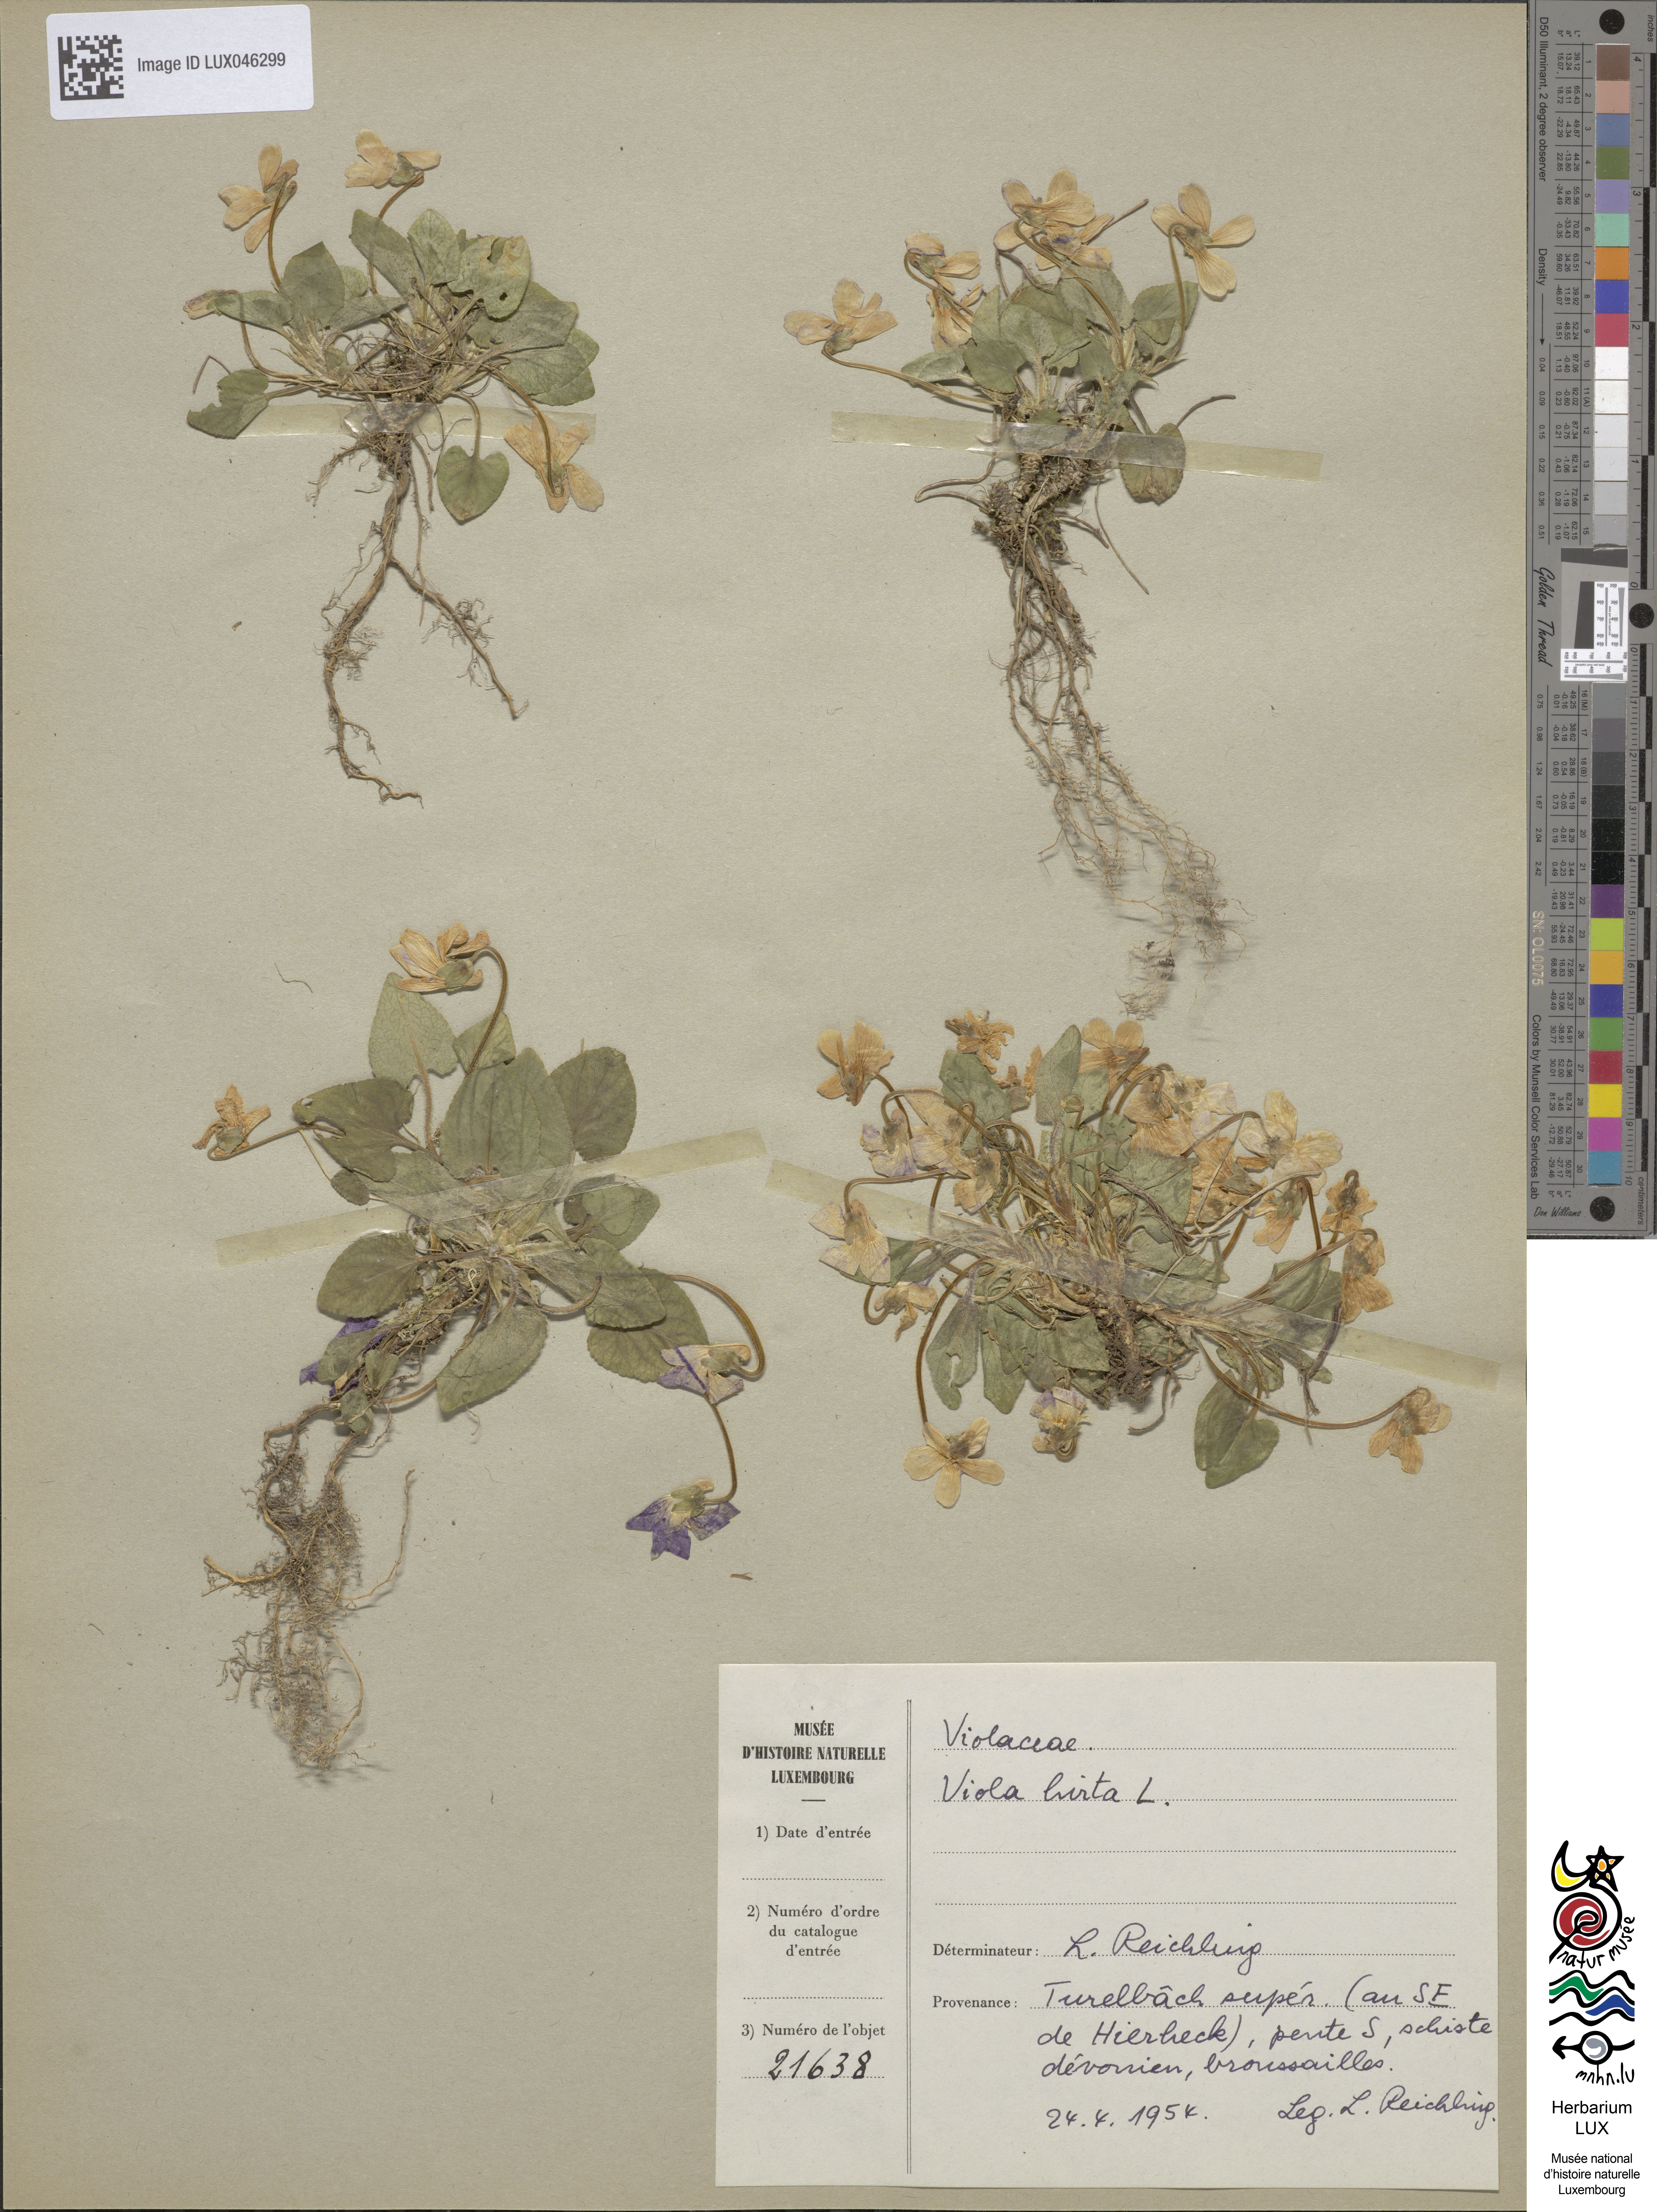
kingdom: Plantae
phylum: Tracheophyta
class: Magnoliopsida
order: Malpighiales
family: Violaceae
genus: Viola
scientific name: Viola hirta
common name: Hairy violet
